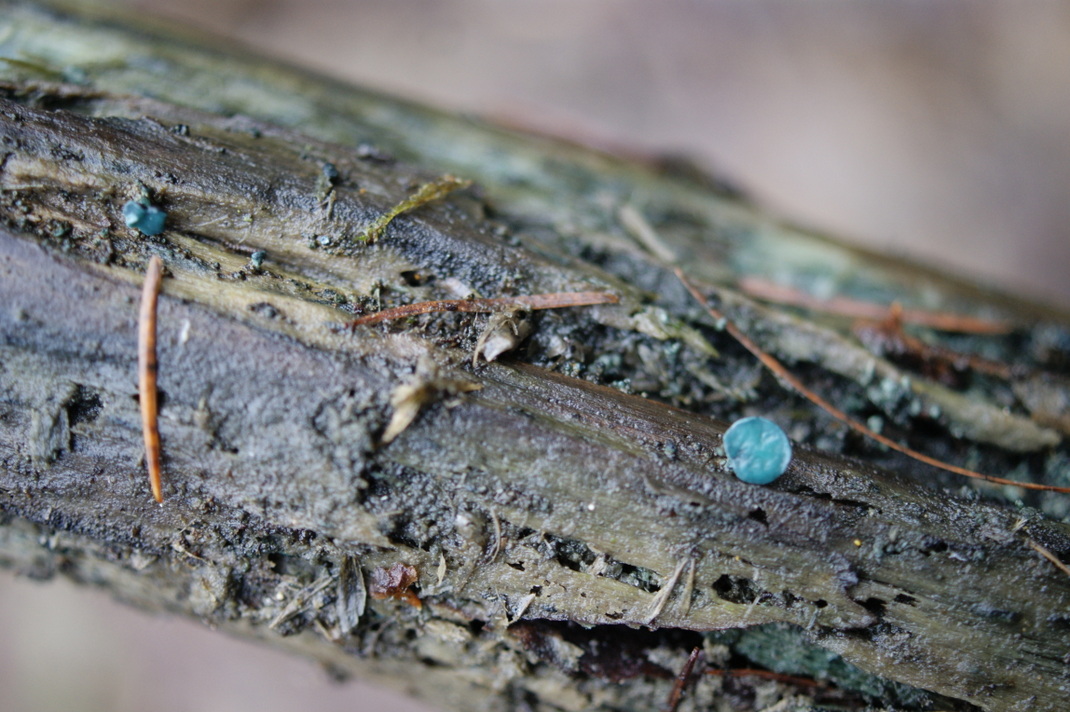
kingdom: Fungi
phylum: Ascomycota
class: Leotiomycetes
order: Helotiales
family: Chlorociboriaceae
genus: Chlorociboria
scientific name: Chlorociboria aeruginascens
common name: almindelig grønskive
